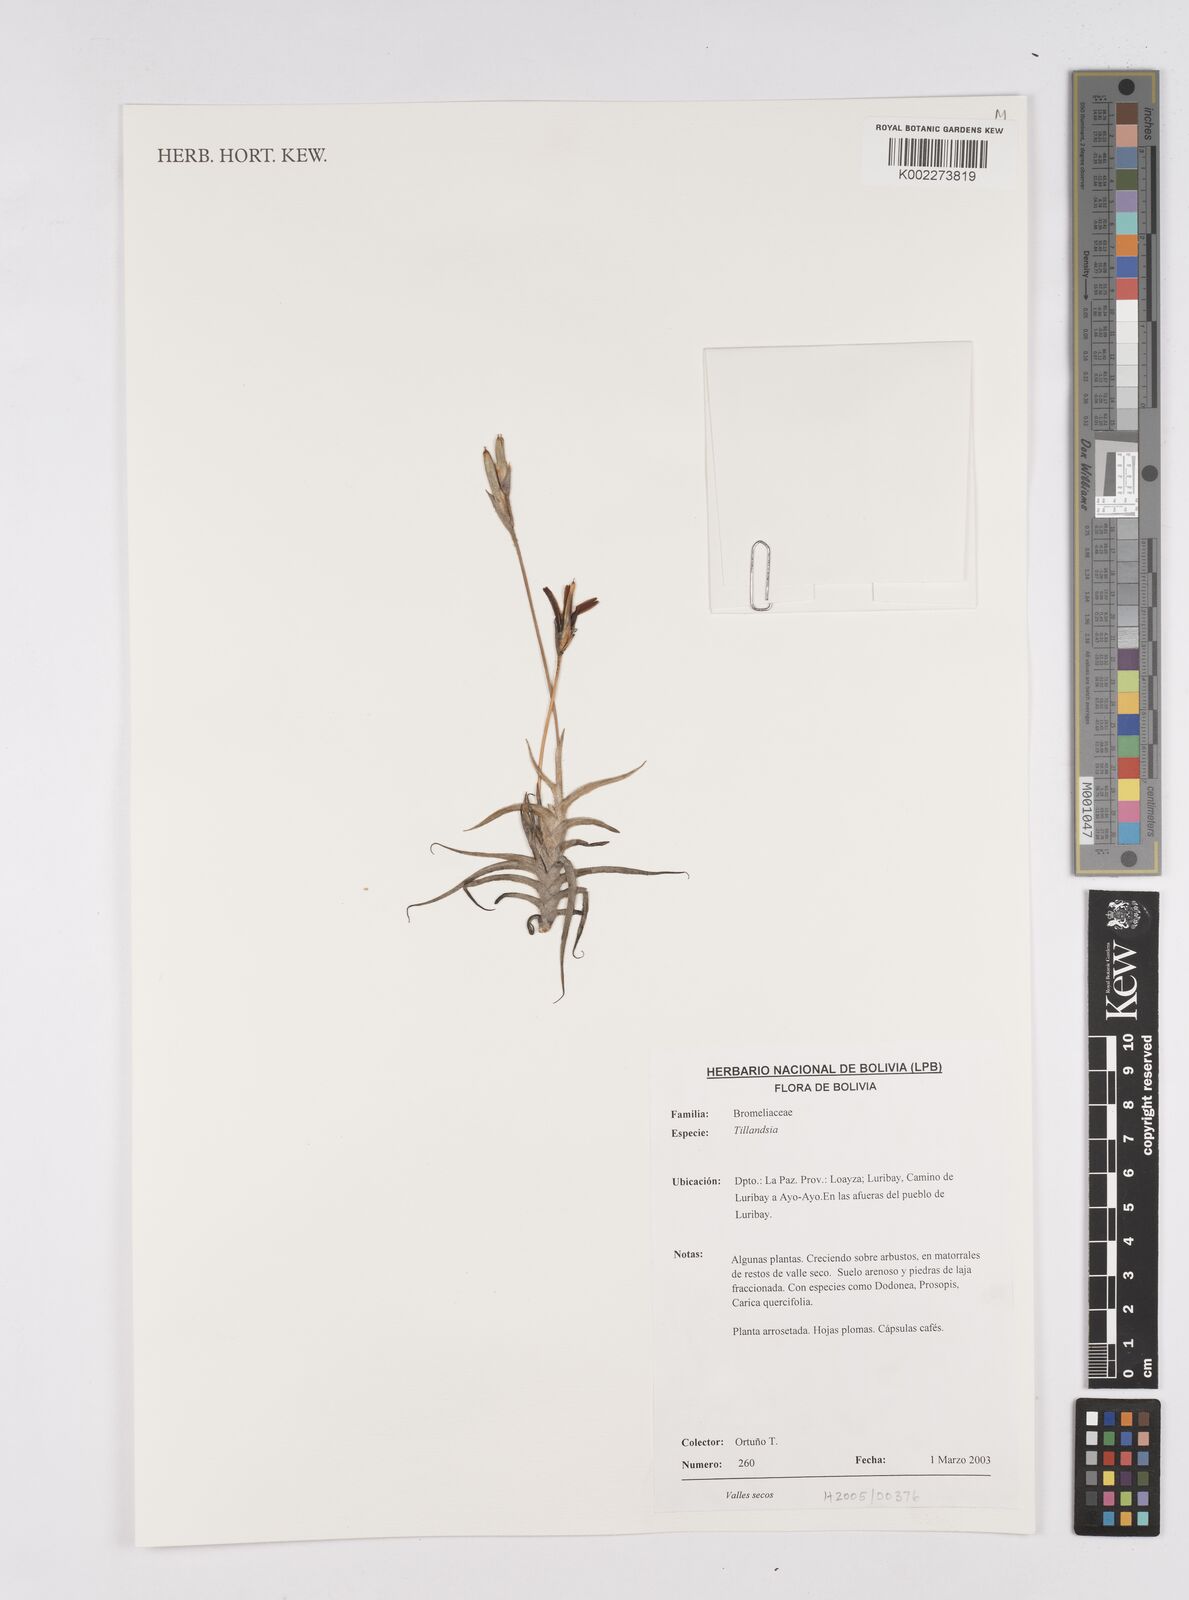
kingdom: Plantae
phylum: Tracheophyta
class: Liliopsida
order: Poales
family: Bromeliaceae
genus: Tillandsia
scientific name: Tillandsia
